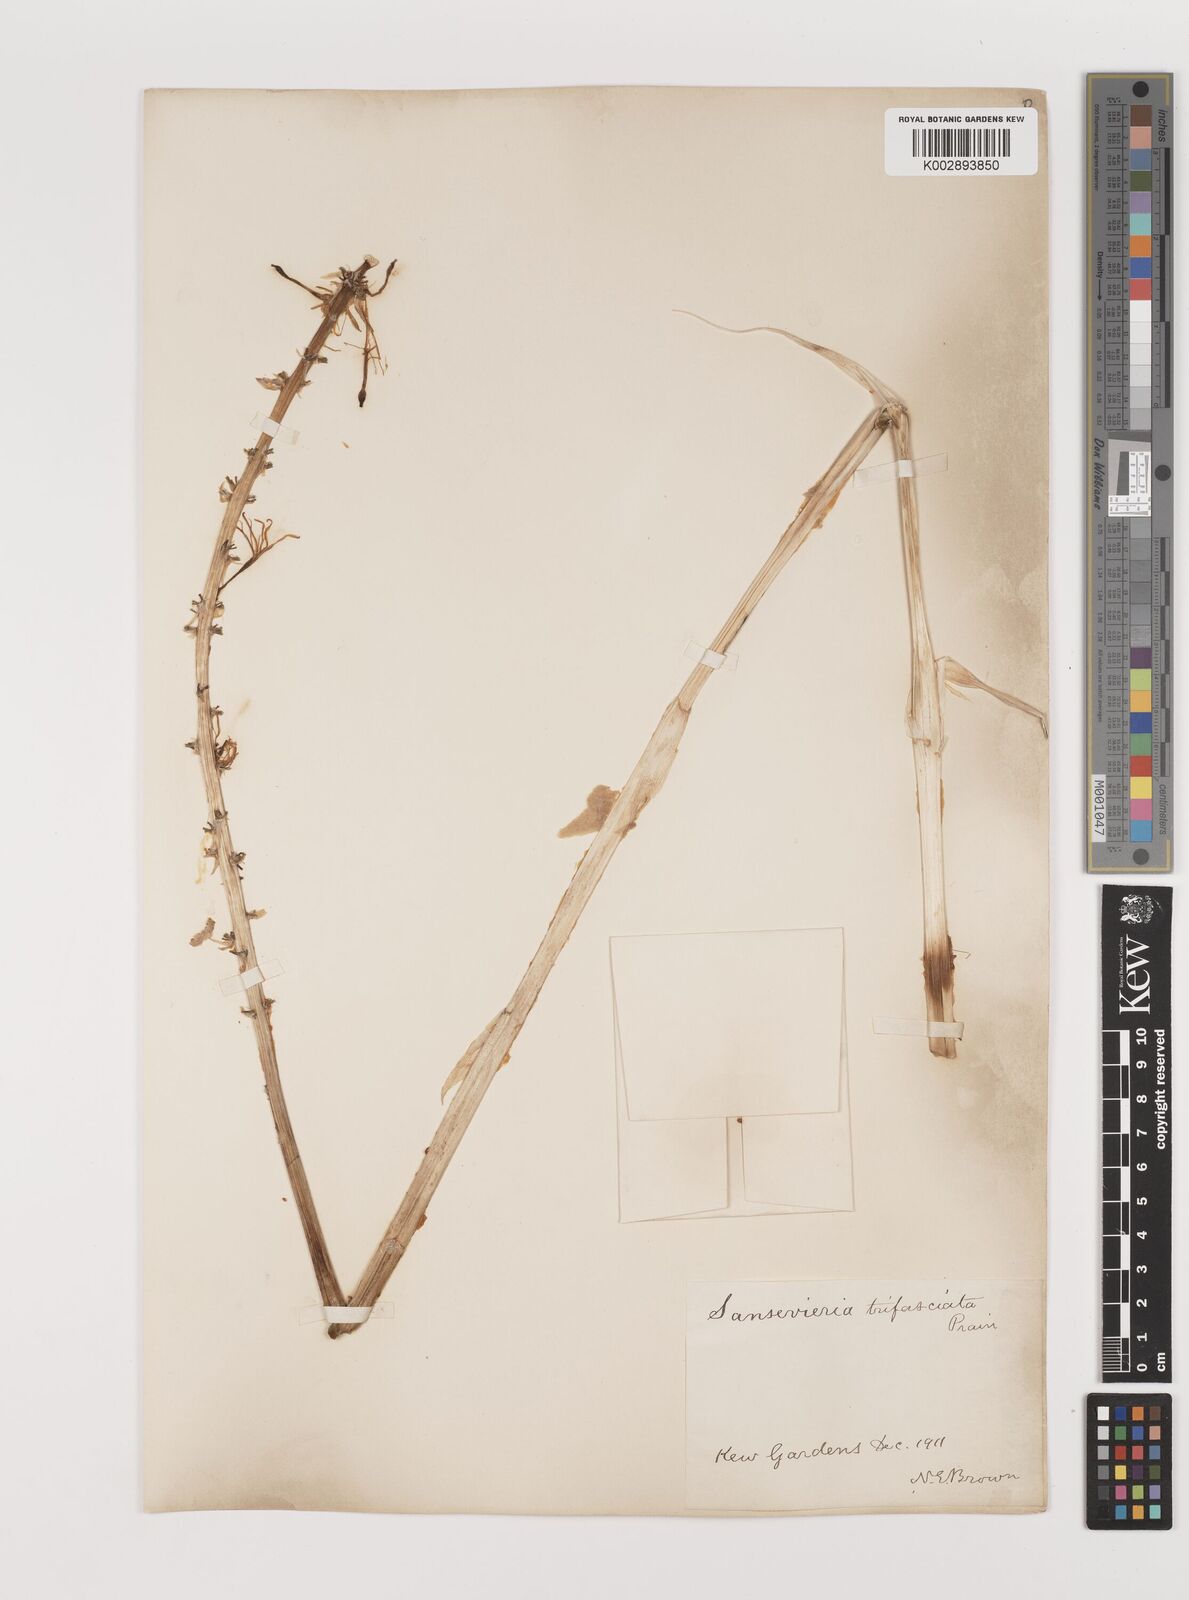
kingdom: Plantae
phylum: Tracheophyta
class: Liliopsida
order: Asparagales
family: Asparagaceae
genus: Dracaena
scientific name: Dracaena trifasciata
